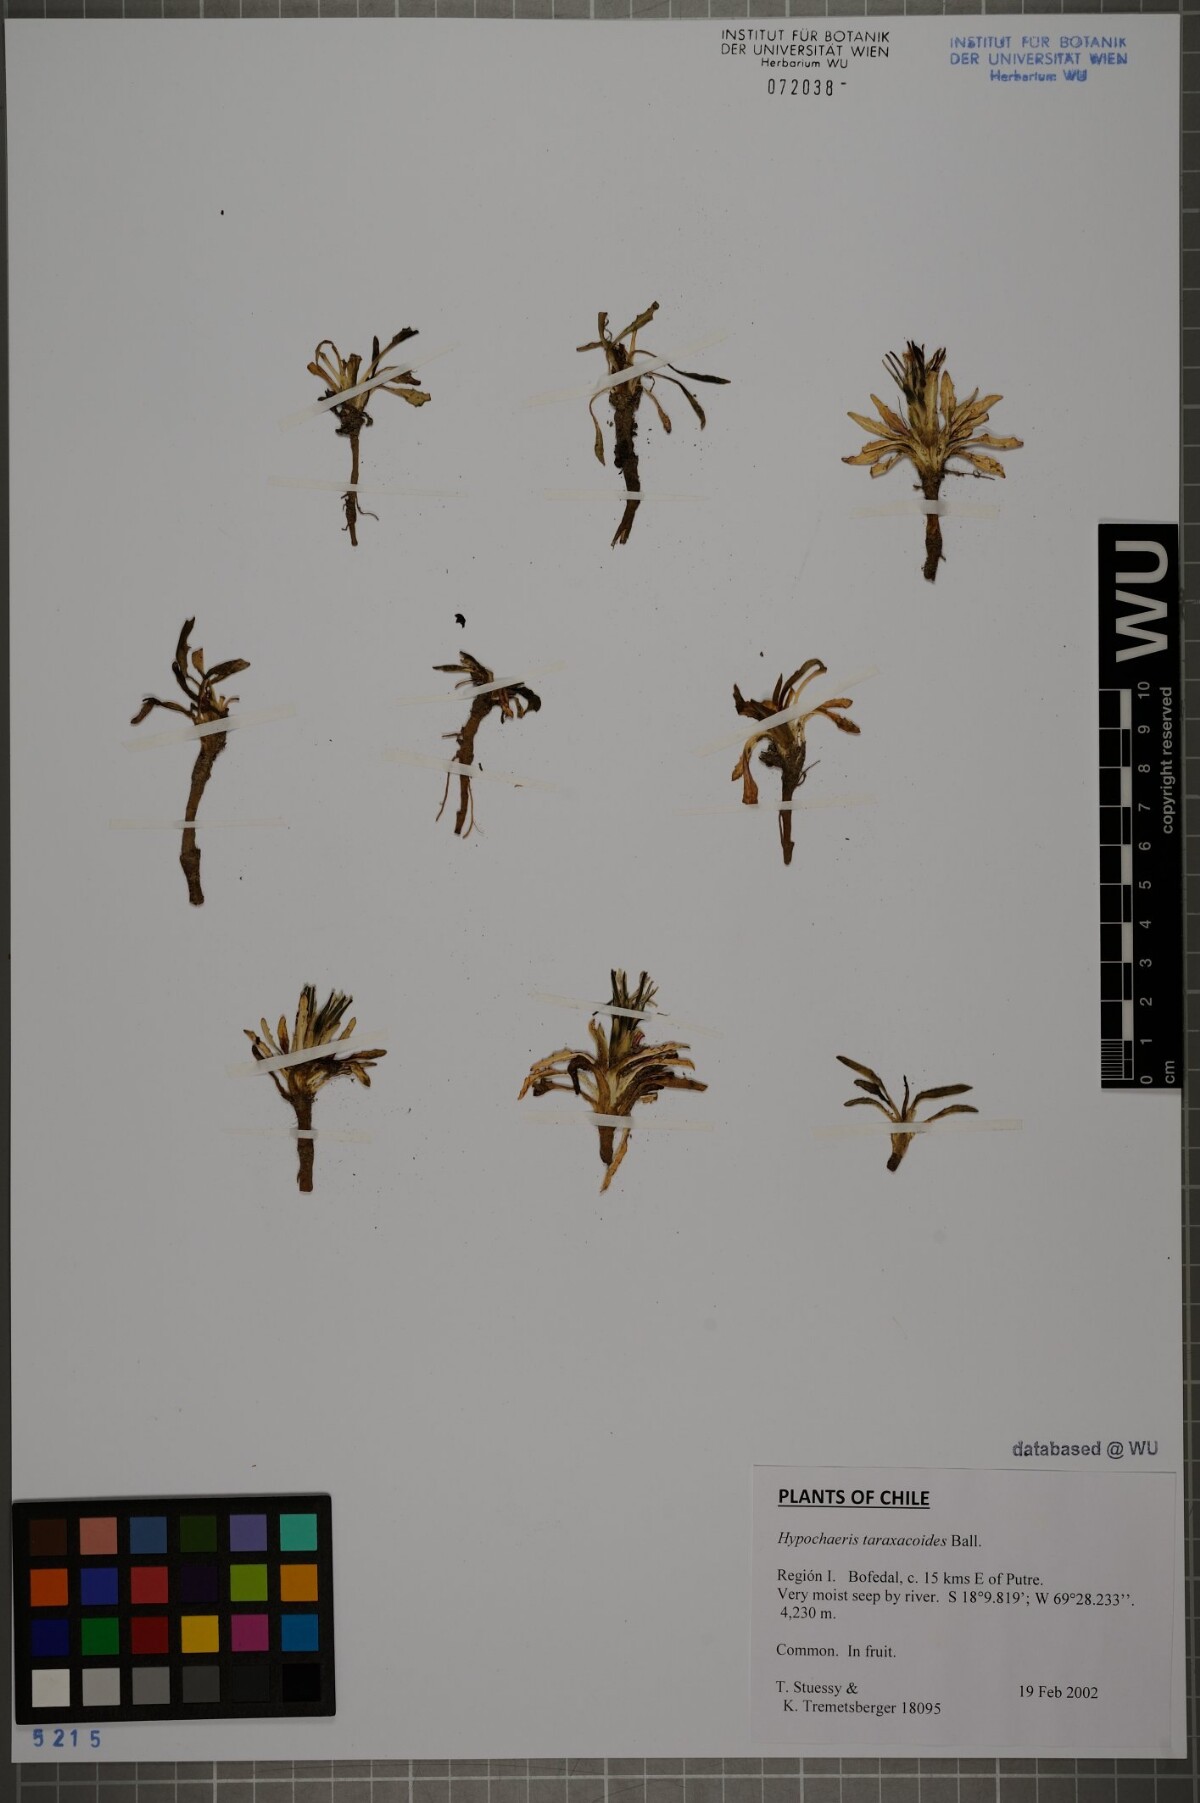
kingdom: Plantae
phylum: Tracheophyta
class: Magnoliopsida
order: Asterales
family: Asteraceae
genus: Hypochaeris
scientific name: Hypochaeris taraxacoides
